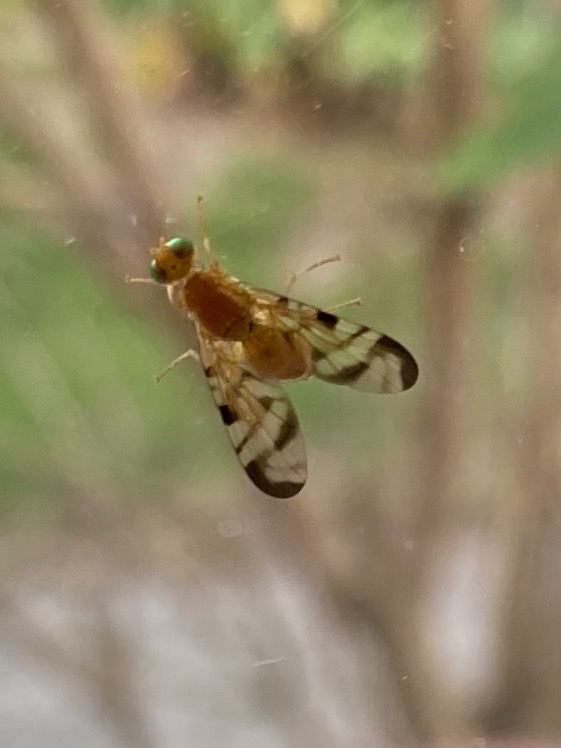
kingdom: Animalia
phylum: Arthropoda
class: Insecta
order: Diptera
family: Tephritidae
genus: Acidia
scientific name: Acidia cognata
